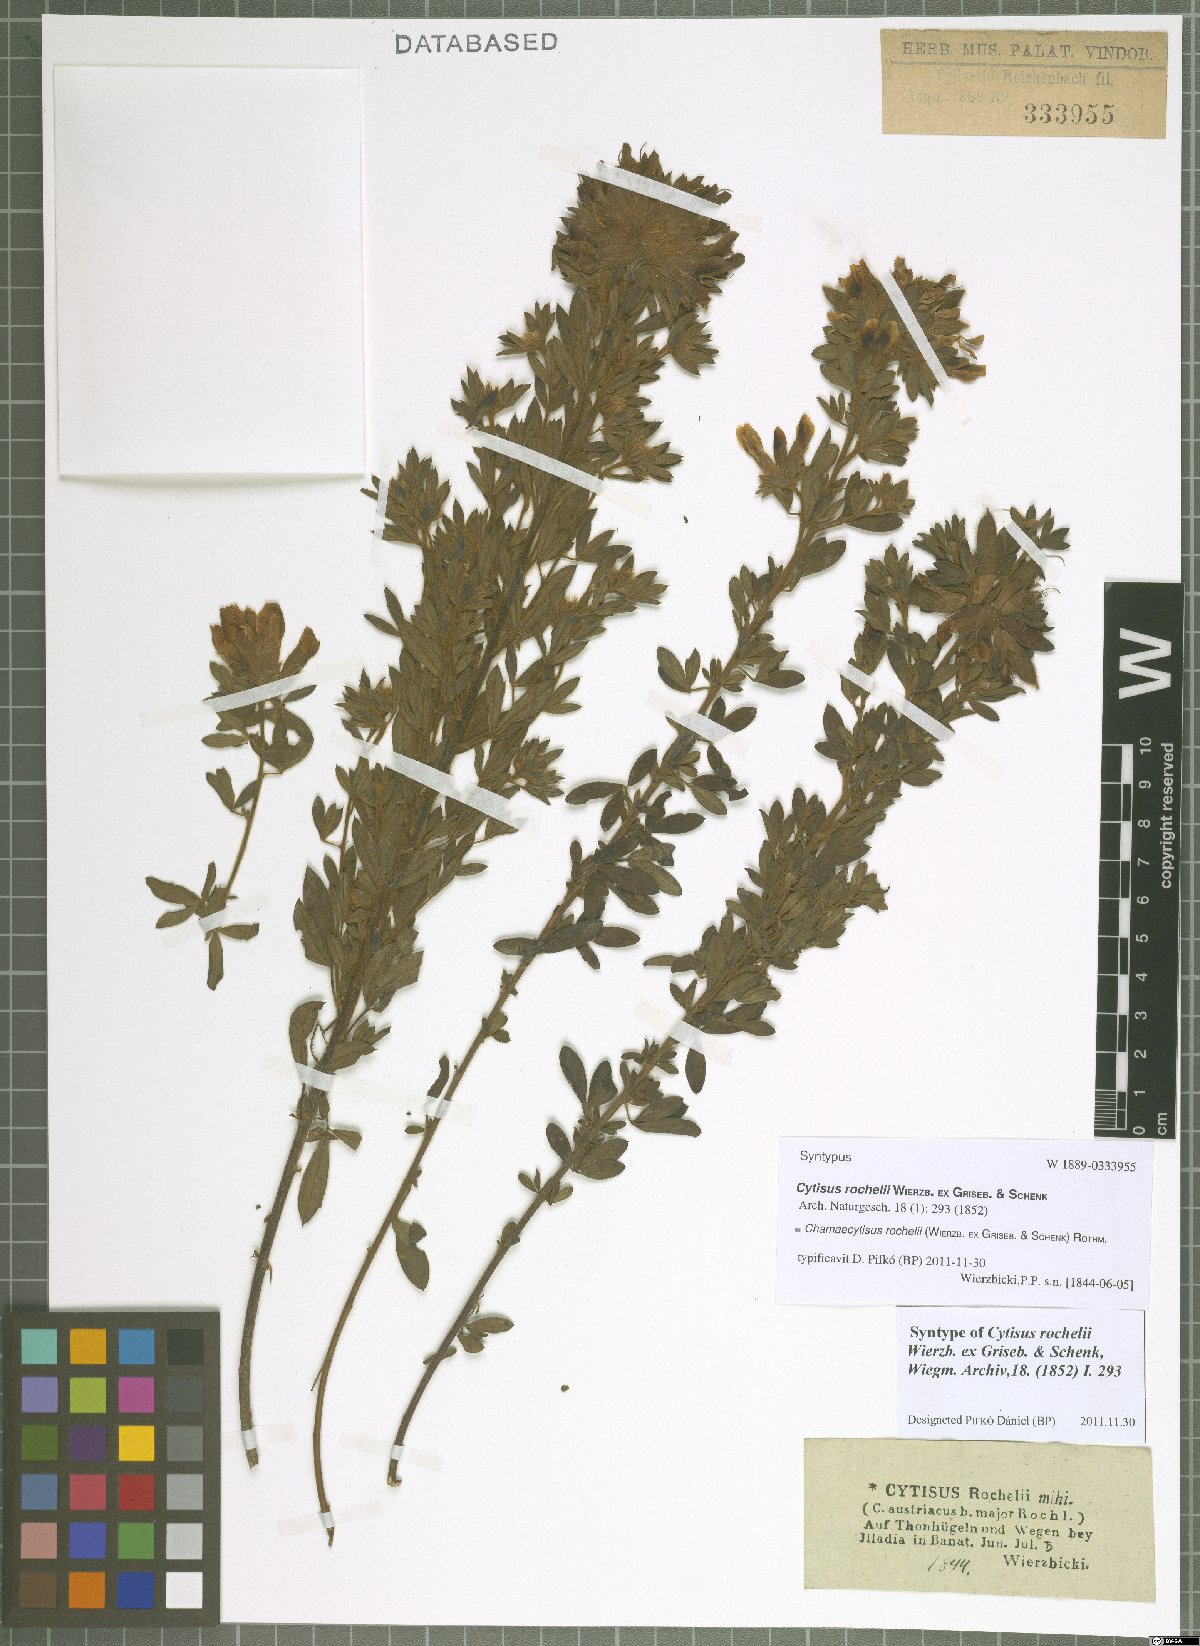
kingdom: Plantae
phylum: Tracheophyta
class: Magnoliopsida
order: Fabales
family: Fabaceae
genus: Chamaecytisus
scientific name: Chamaecytisus rochelii
